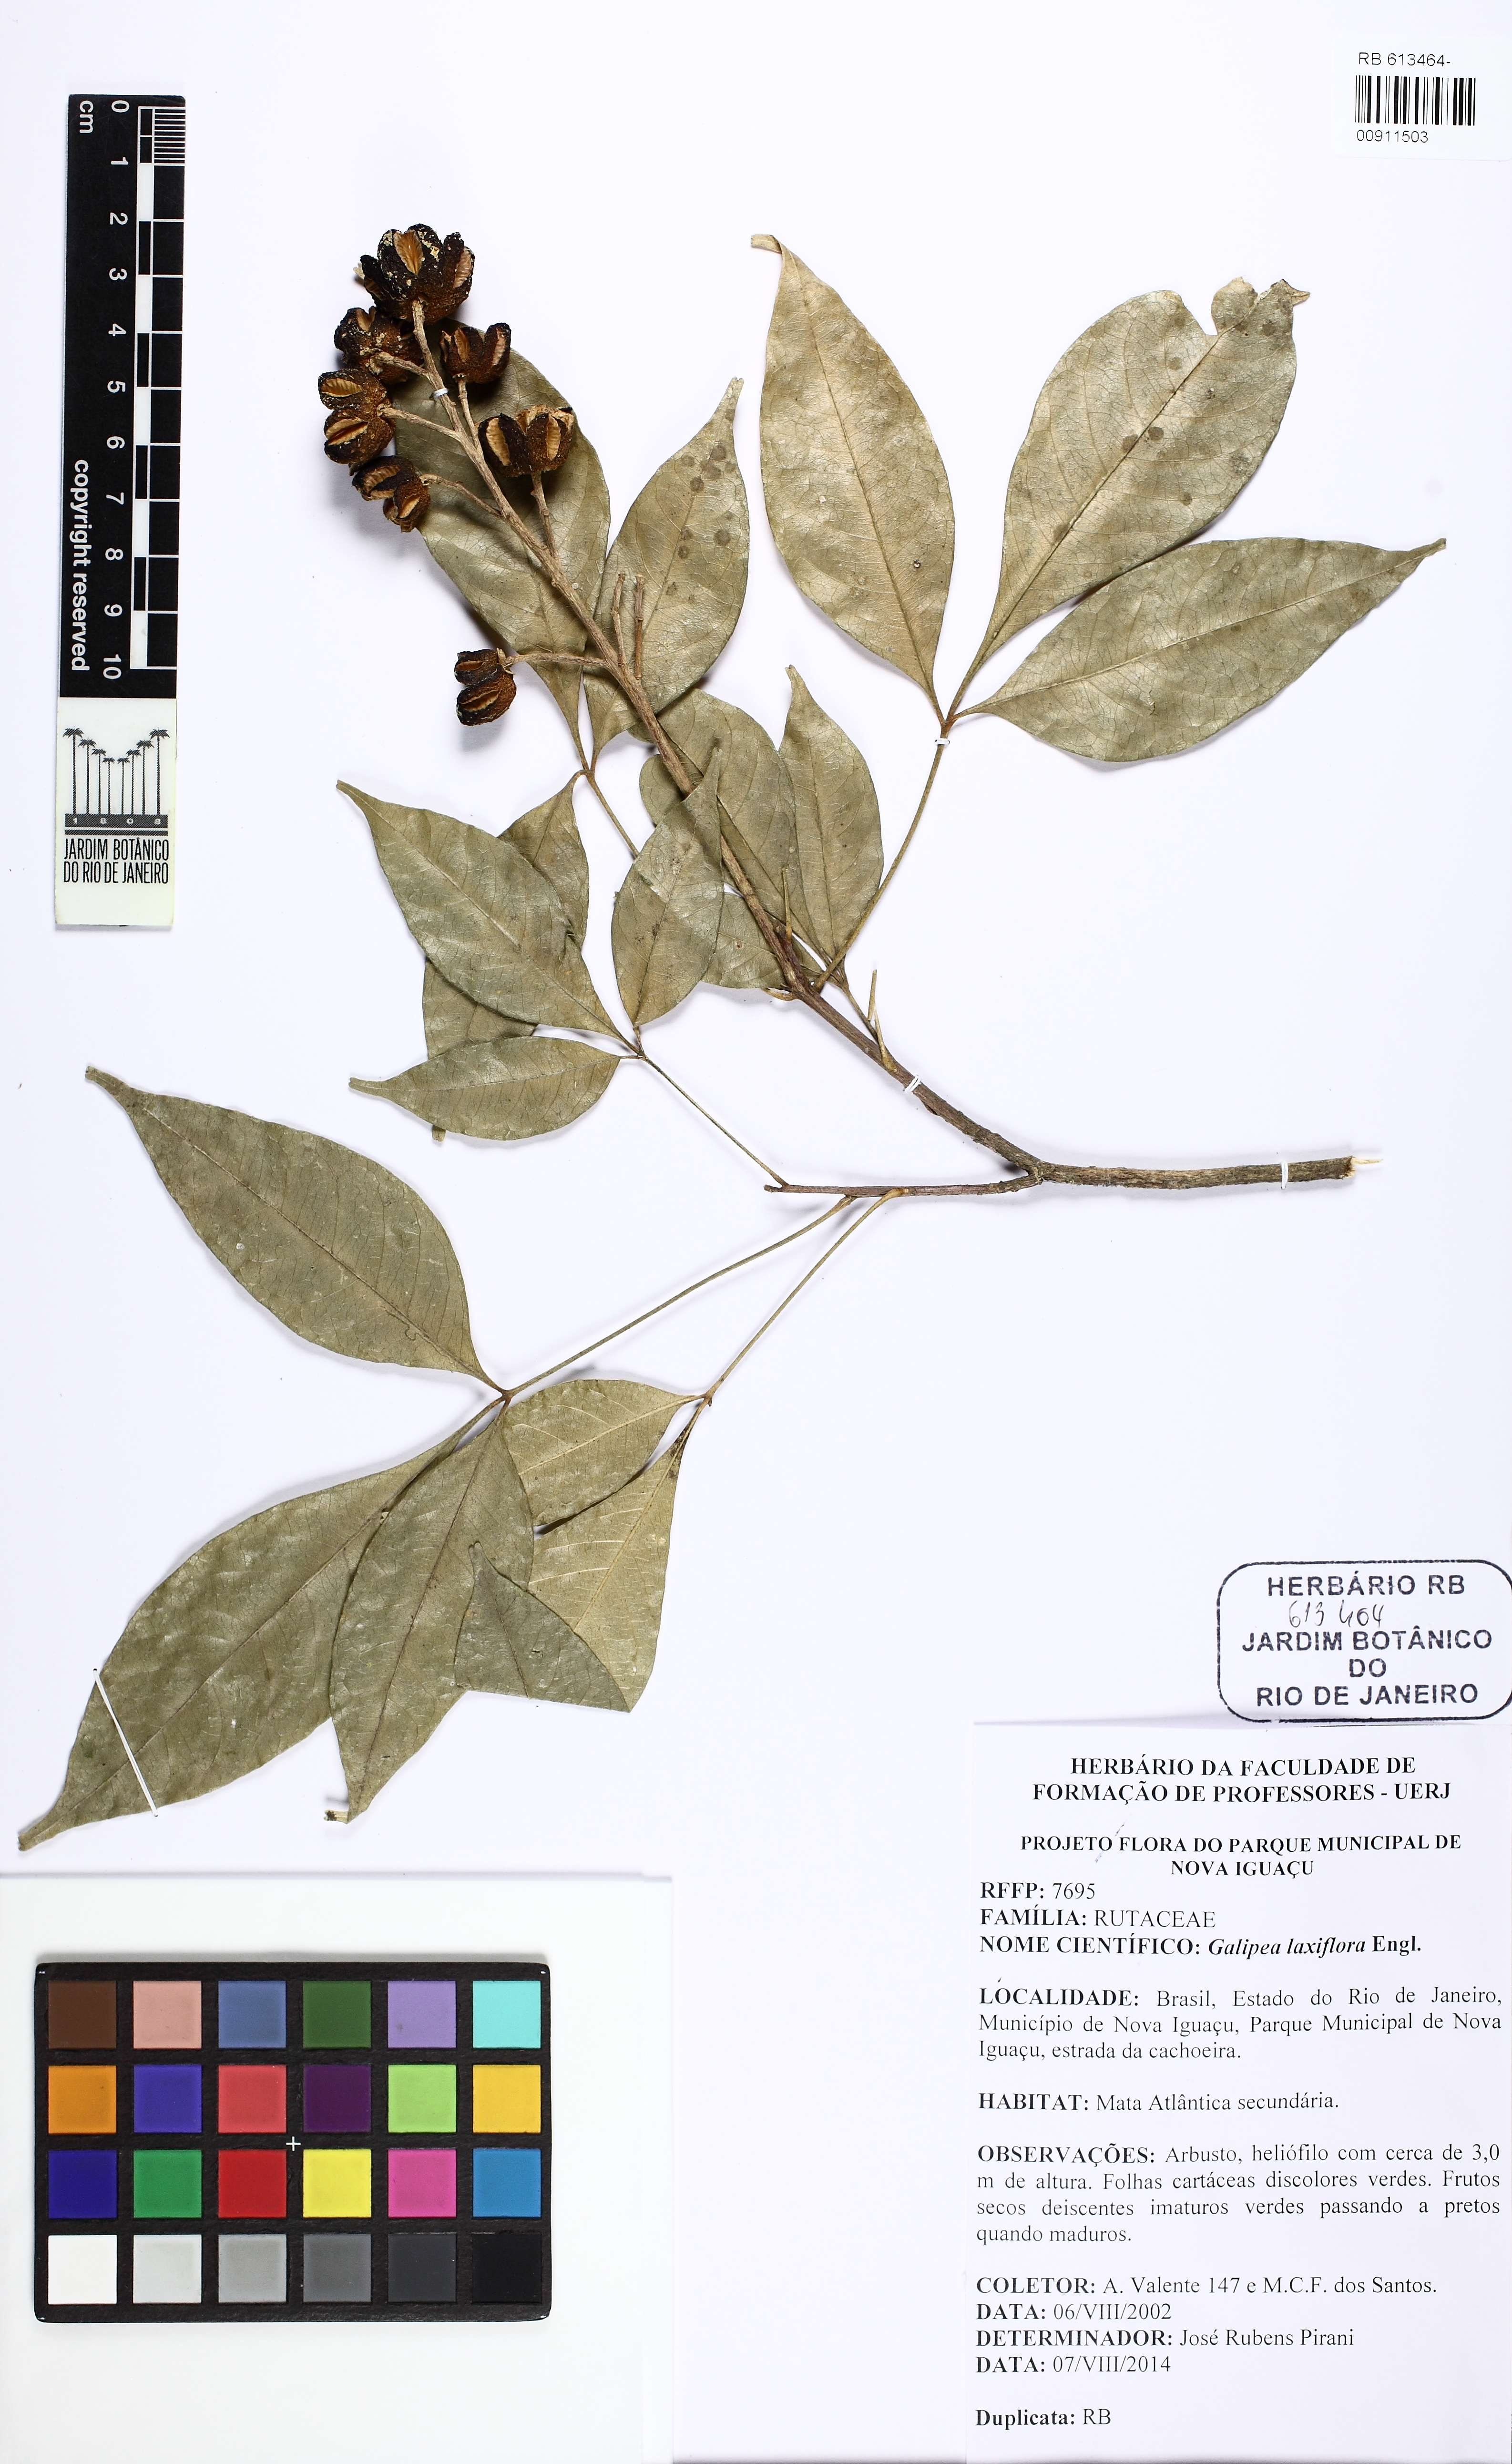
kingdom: Plantae
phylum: Tracheophyta
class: Magnoliopsida
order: Sapindales
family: Rutaceae
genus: Galipea
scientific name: Galipea laxiflora
